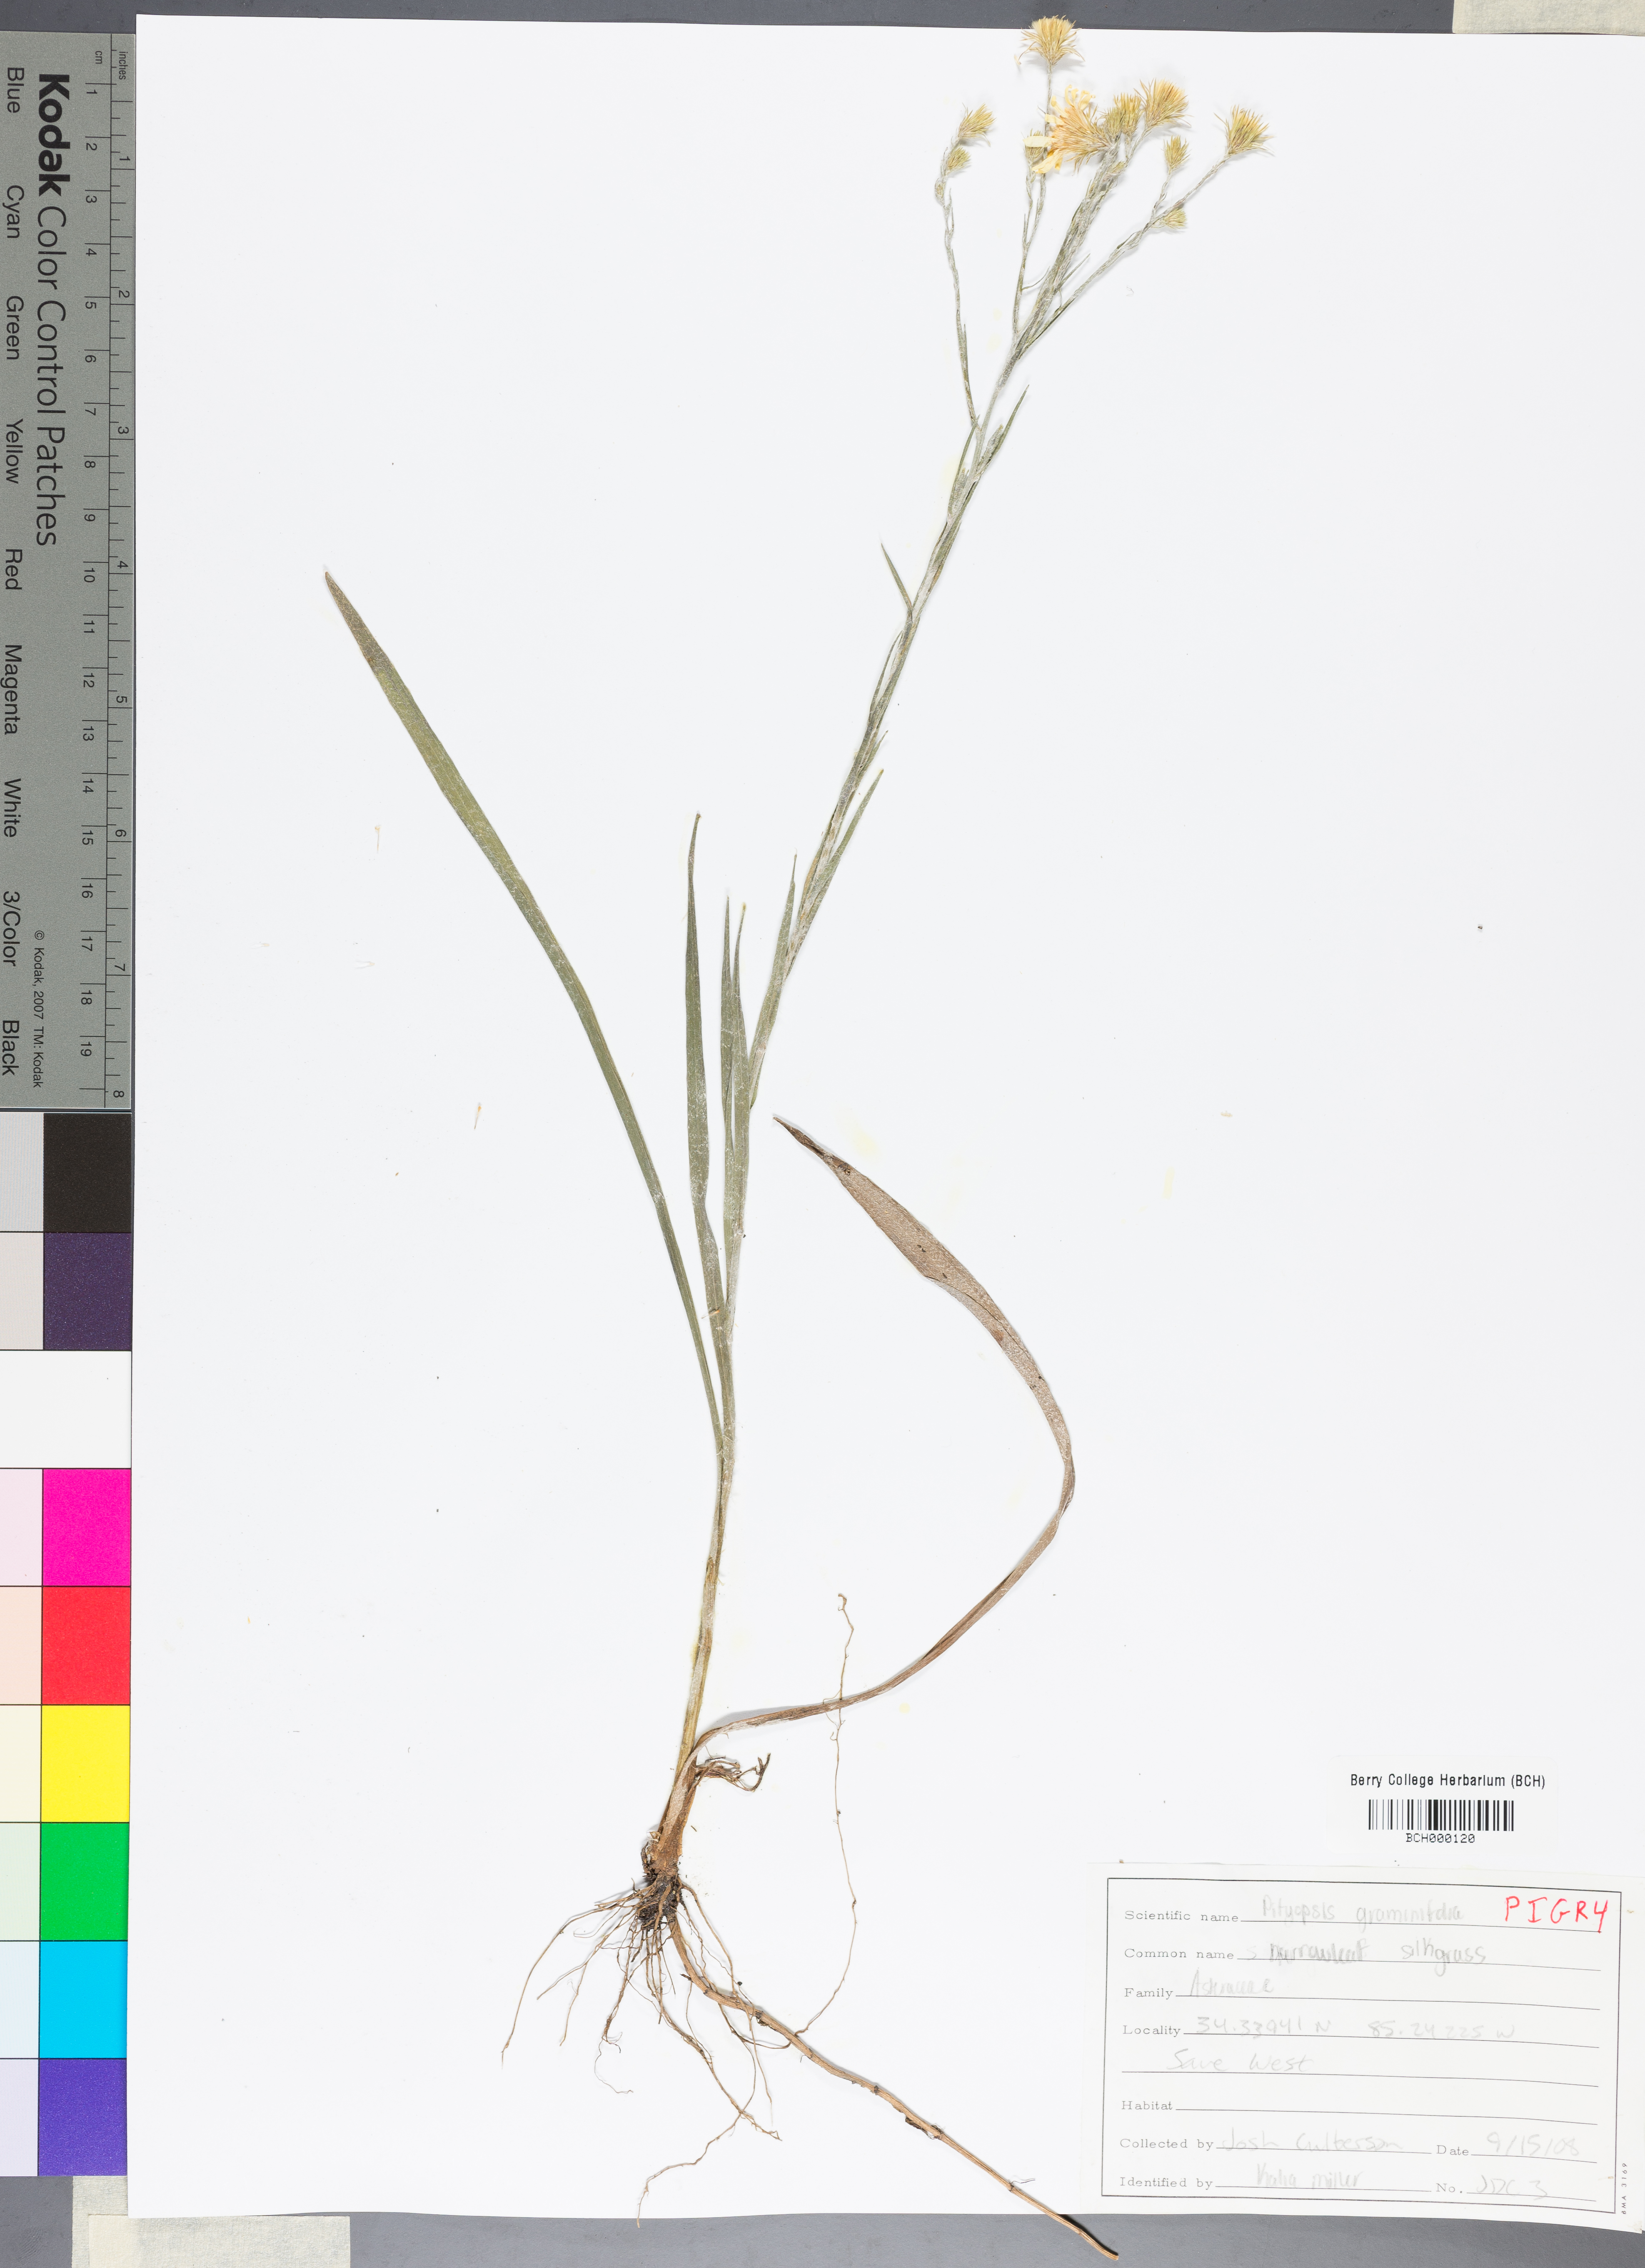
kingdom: Plantae
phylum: Tracheophyta
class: Magnoliopsida
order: Asterales
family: Asteraceae
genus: Pityopsis
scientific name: Pityopsis graminifolia
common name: Grass-leaf golden-aster
